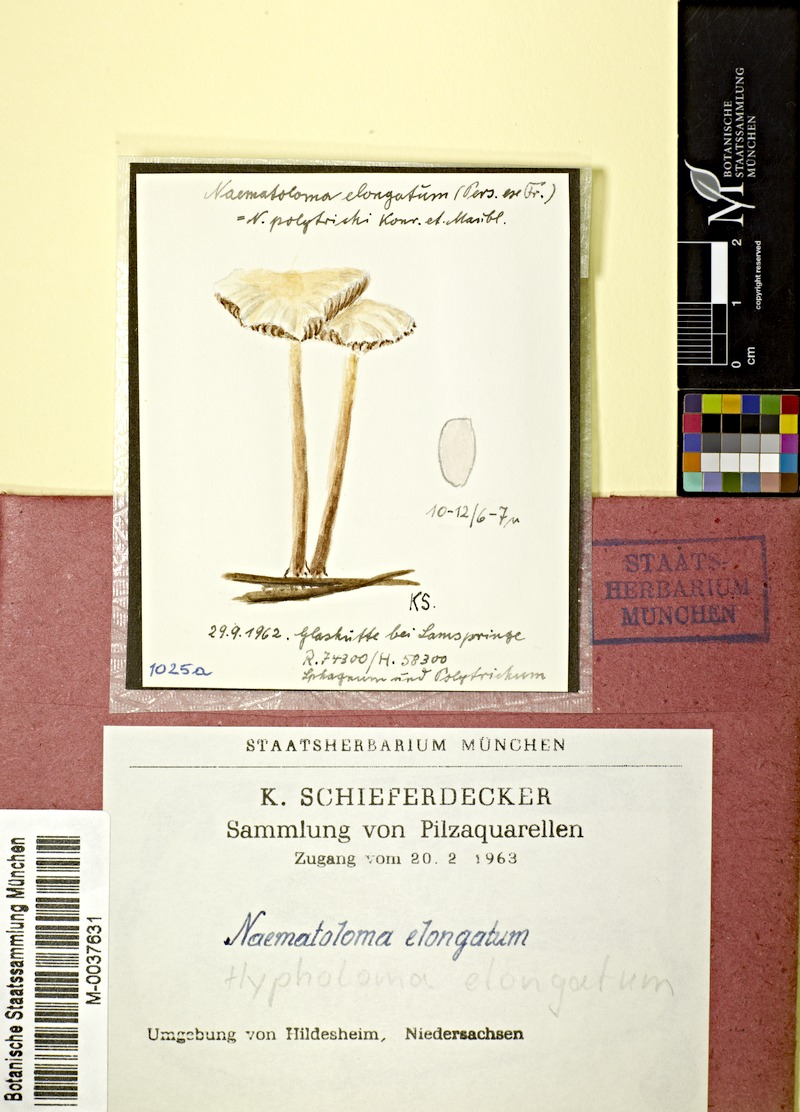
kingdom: Fungi
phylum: Basidiomycota
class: Agaricomycetes
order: Agaricales
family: Strophariaceae
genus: Hypholoma
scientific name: Hypholoma elongatum
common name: Sphagnum brownie
